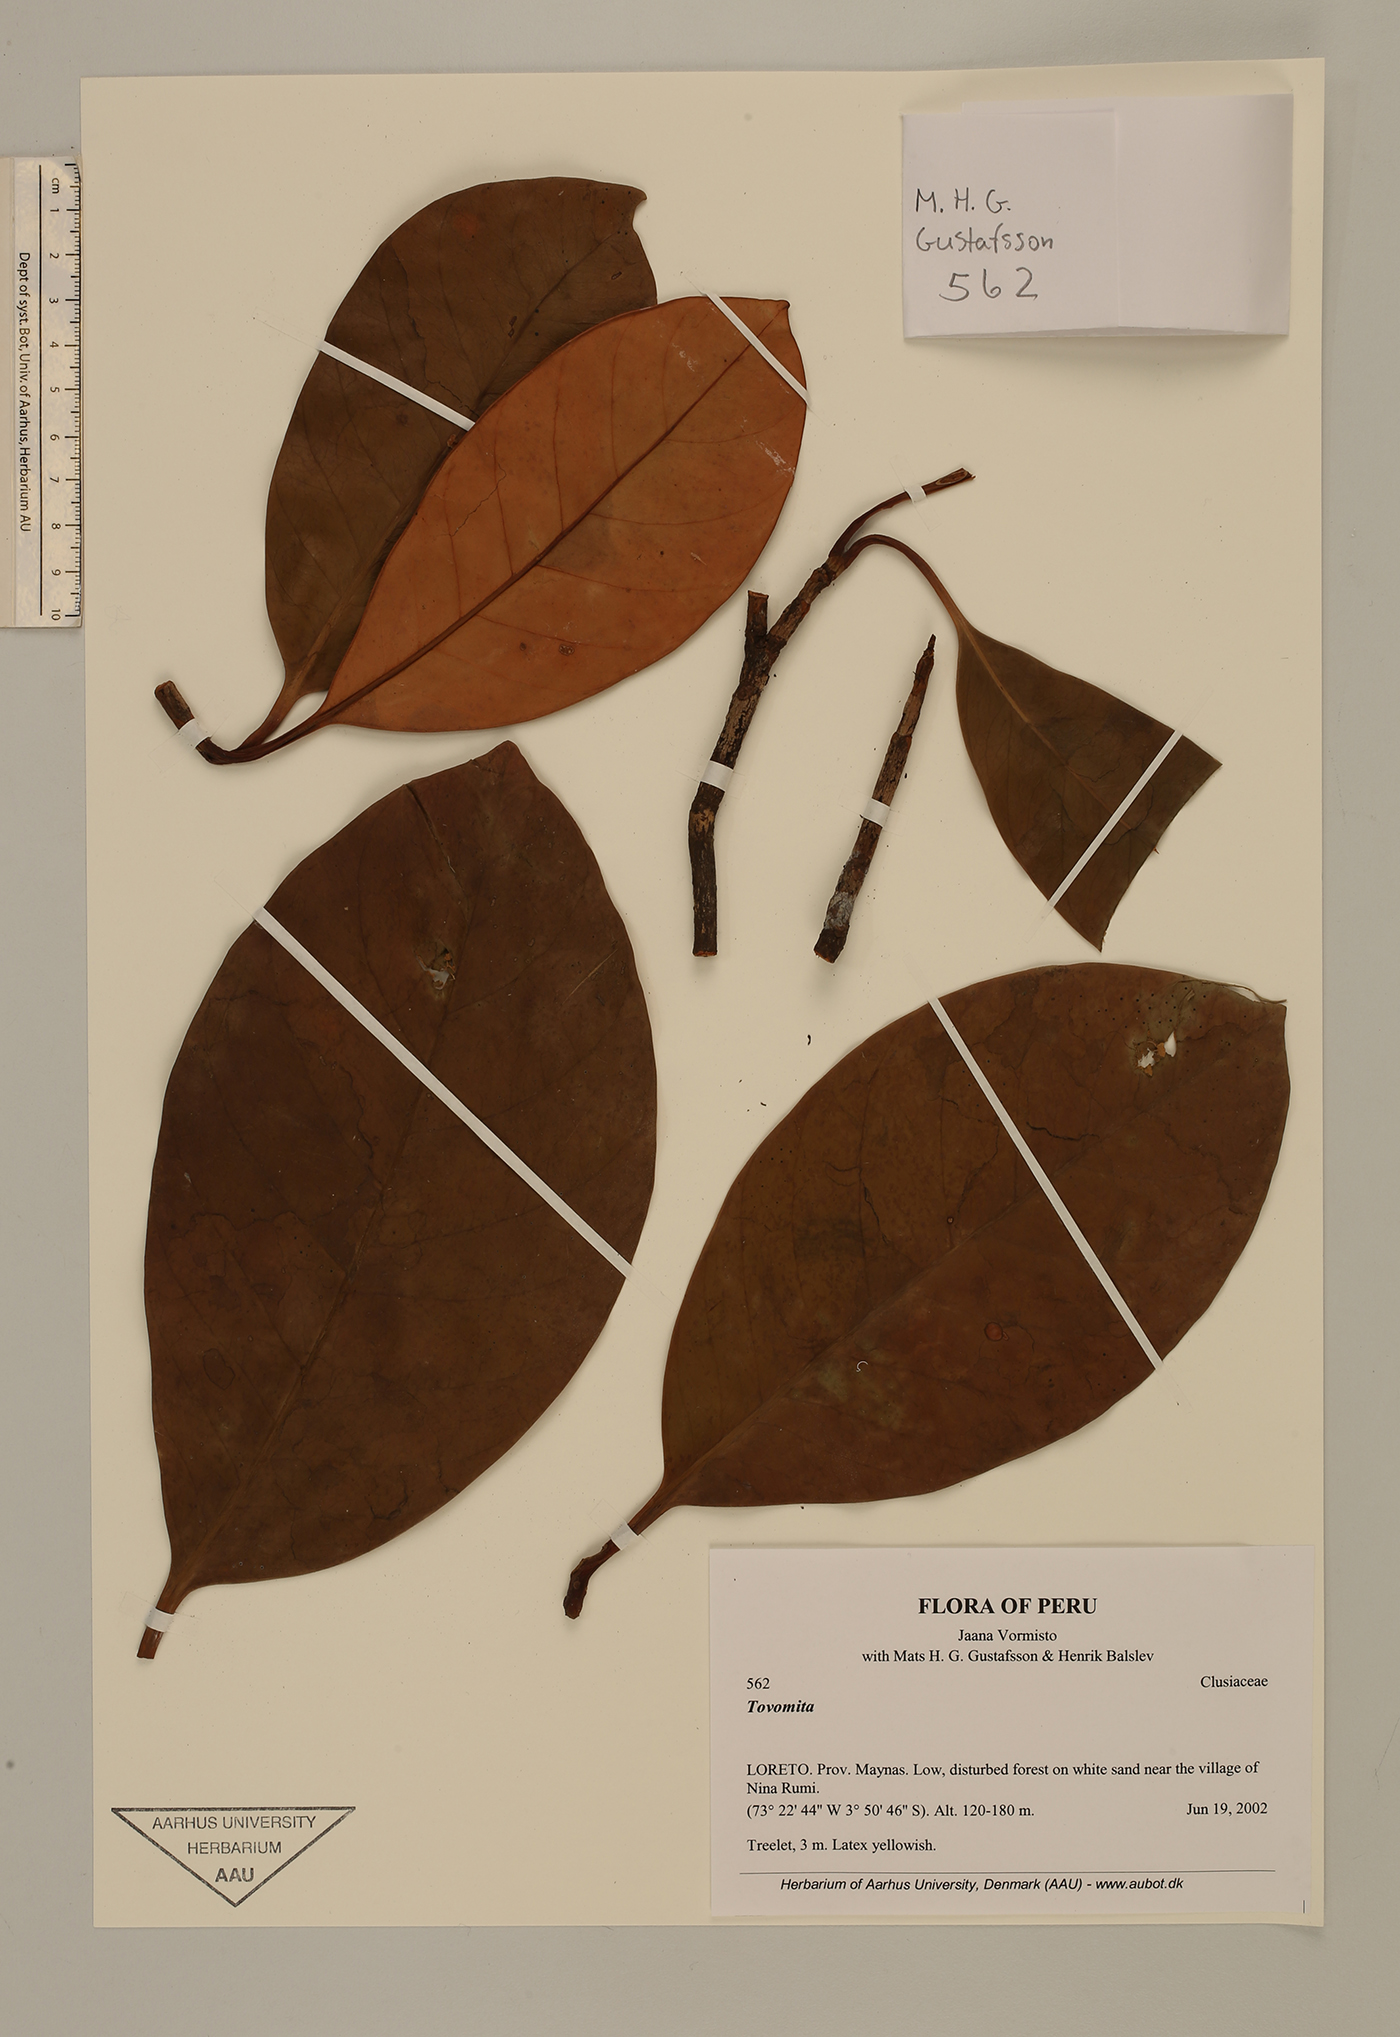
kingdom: Plantae
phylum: Tracheophyta
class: Magnoliopsida
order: Malpighiales
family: Clusiaceae
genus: Tovomita
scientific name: Tovomita calophyllophylla
